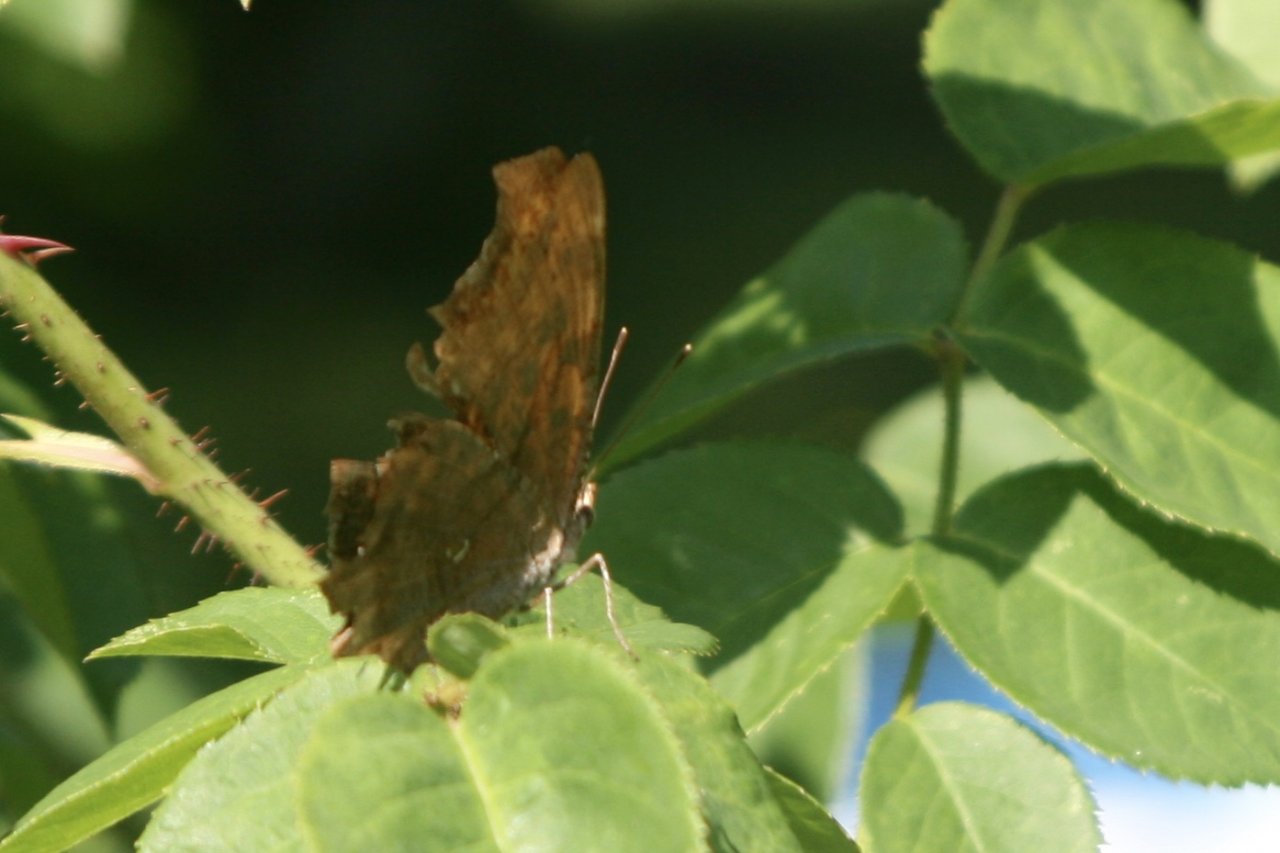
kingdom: Animalia
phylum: Arthropoda
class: Insecta
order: Lepidoptera
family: Nymphalidae
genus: Polygonia
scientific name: Polygonia interrogationis
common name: Question Mark
